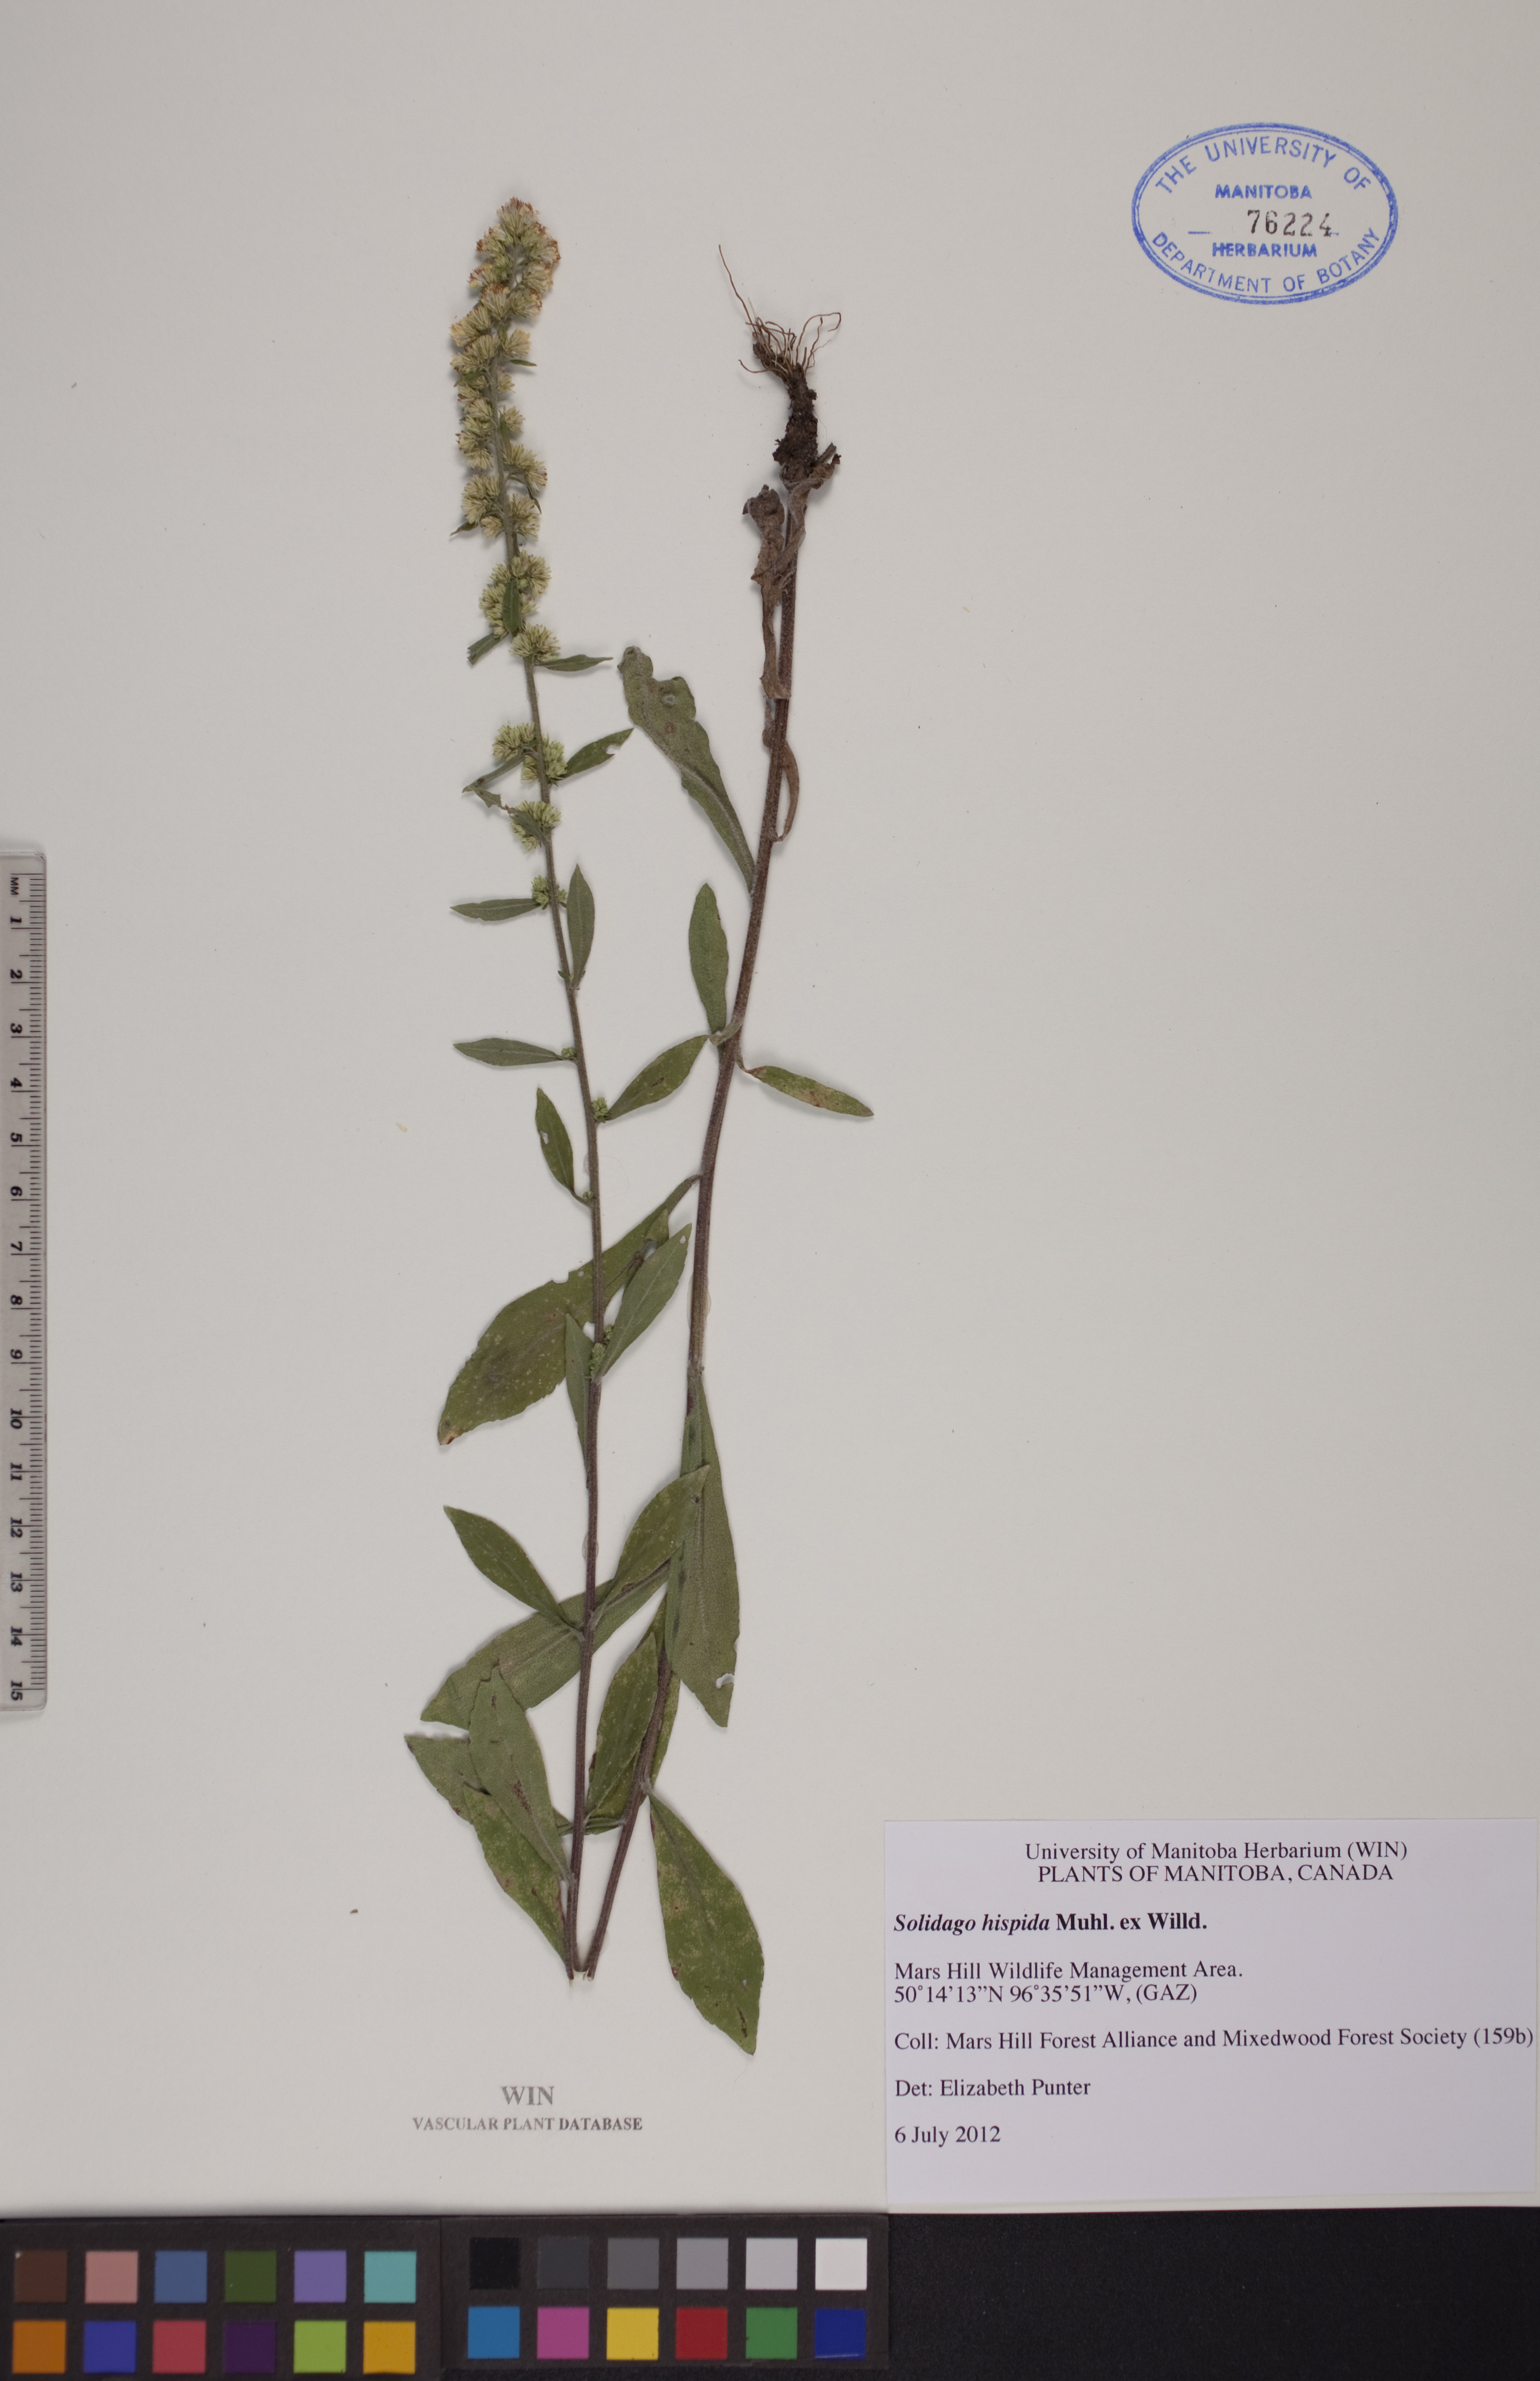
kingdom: Plantae
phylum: Tracheophyta
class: Magnoliopsida
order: Asterales
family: Asteraceae
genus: Solidago
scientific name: Solidago hispida
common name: Hairy goldenrod
